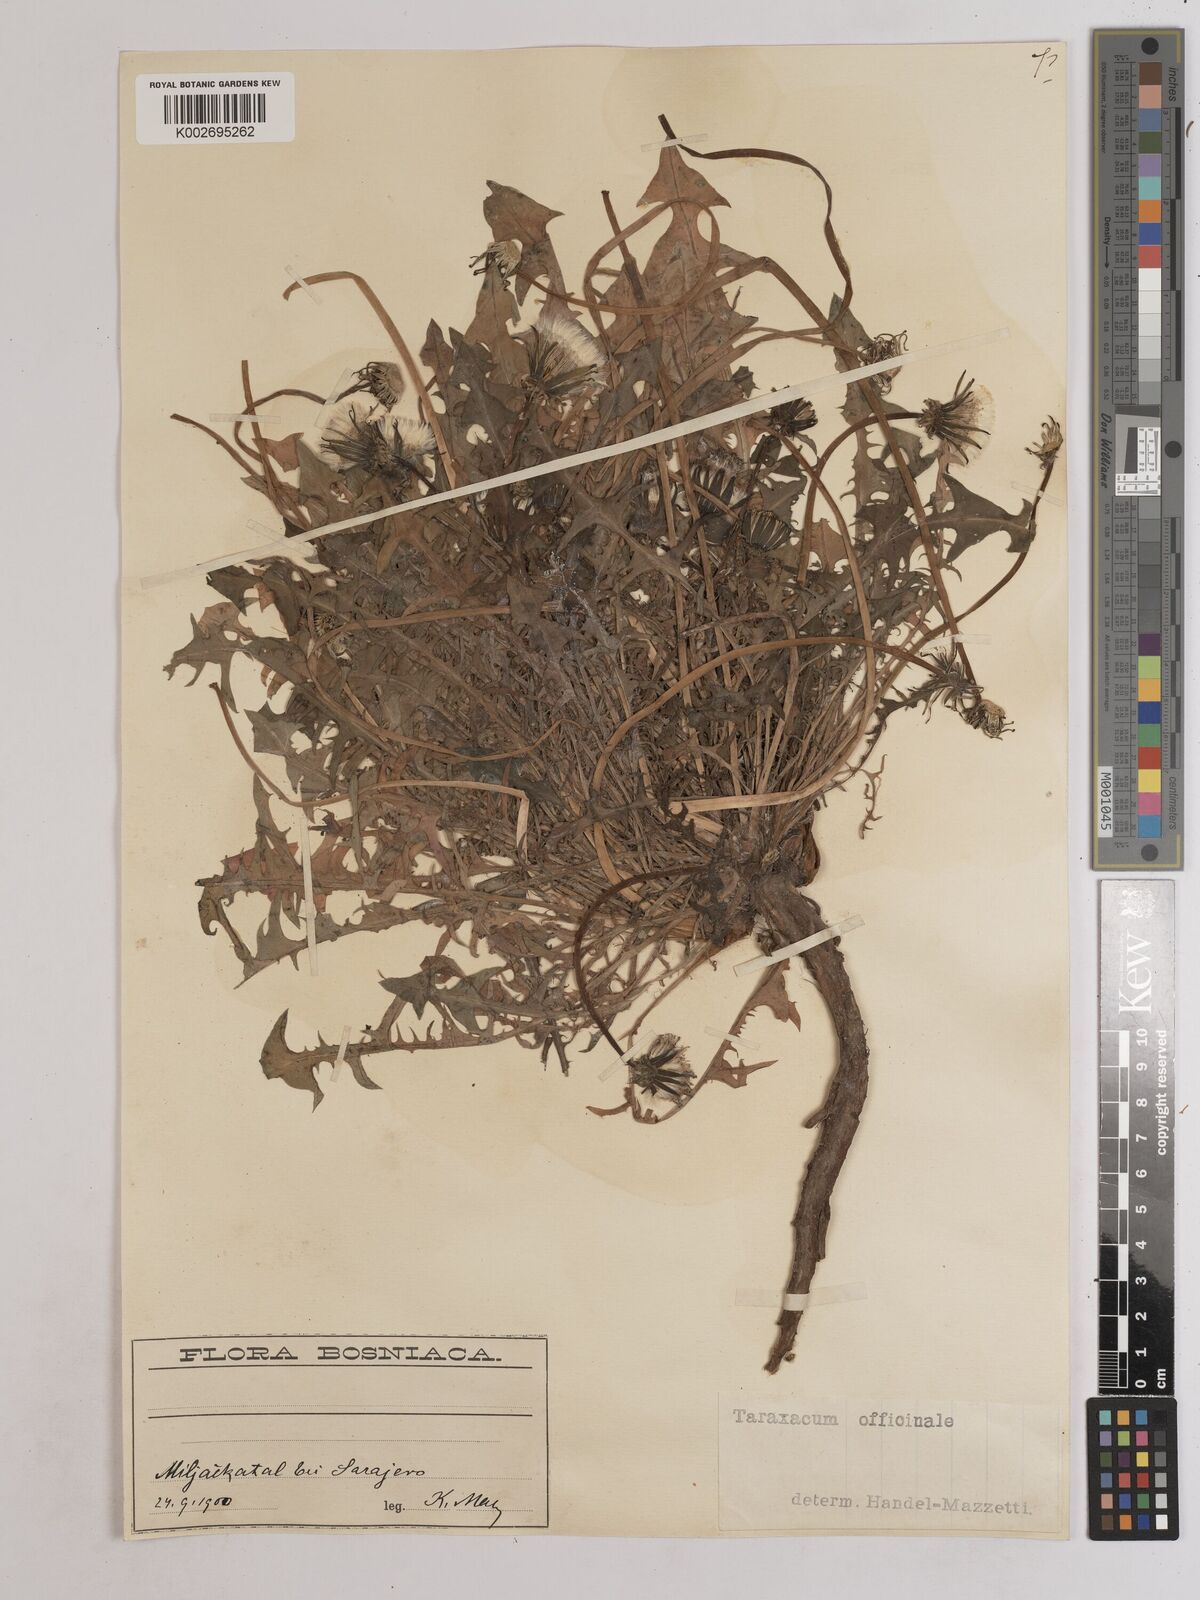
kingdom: Plantae
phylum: Tracheophyta
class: Magnoliopsida
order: Asterales
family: Asteraceae
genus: Taraxacum
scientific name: Taraxacum officinale
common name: Common dandelion
